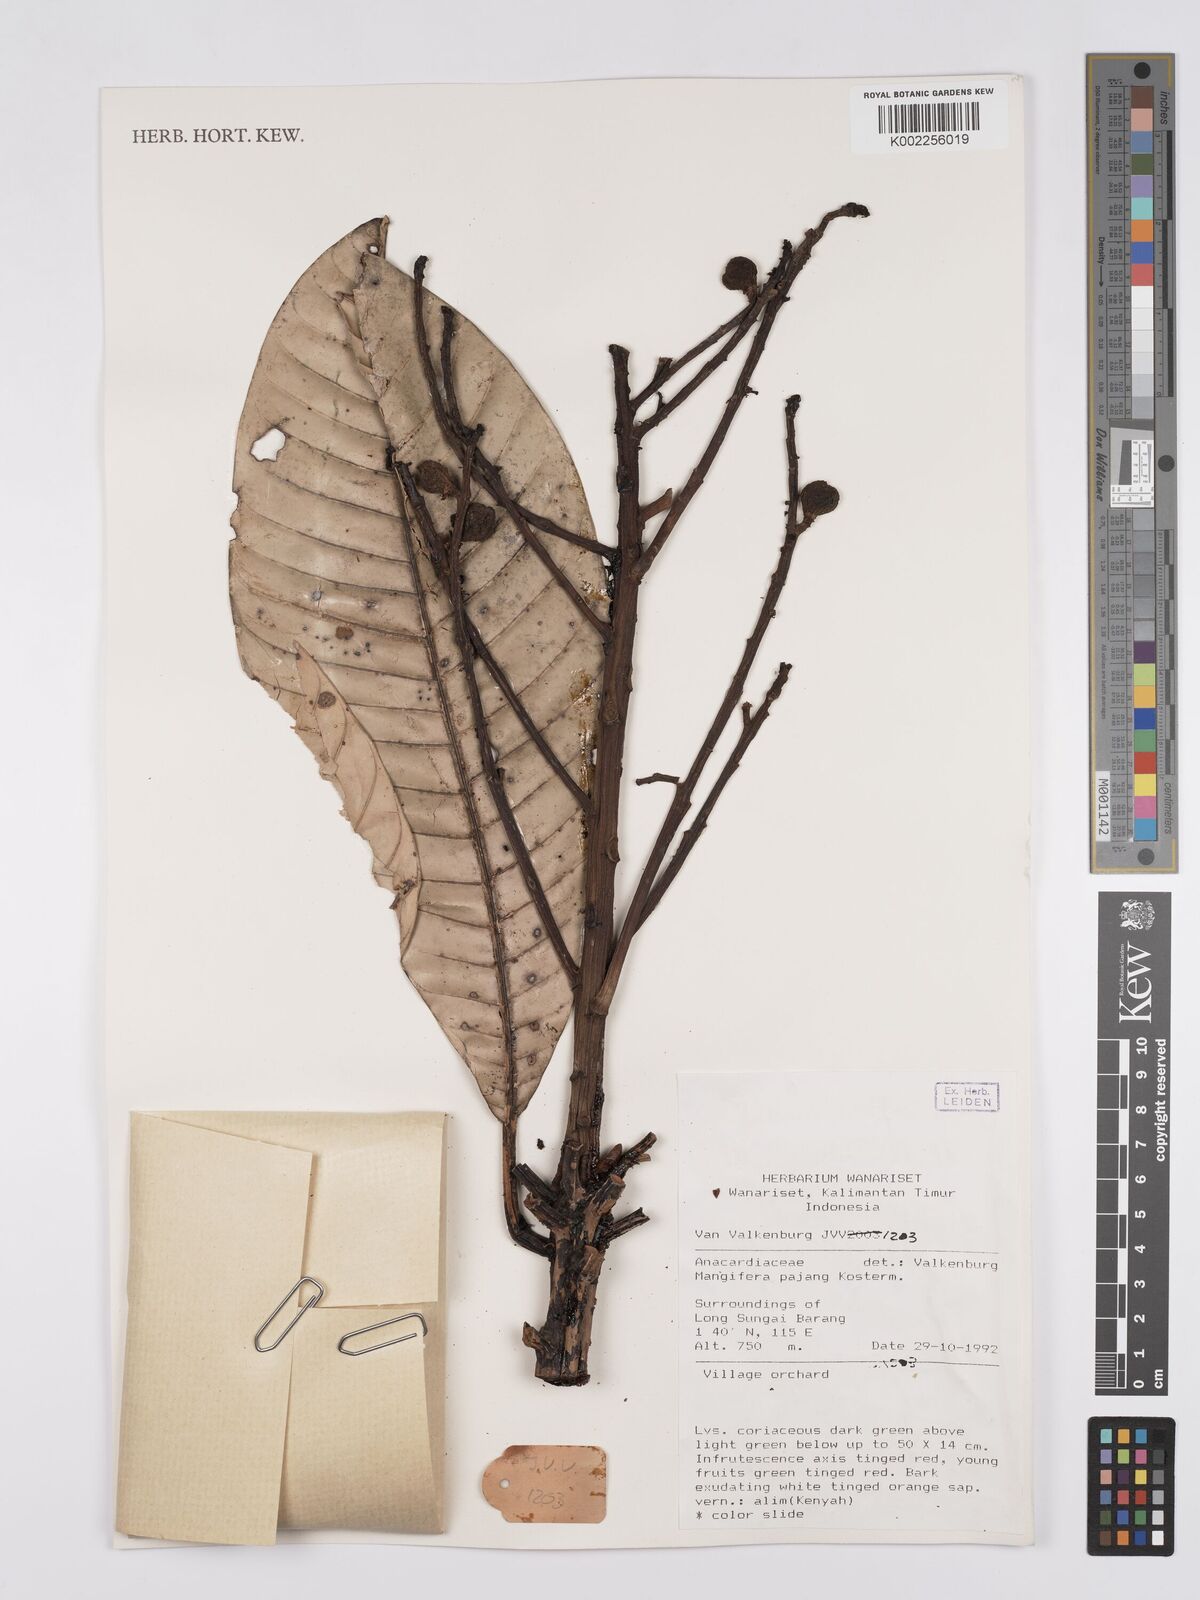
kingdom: Plantae
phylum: Tracheophyta
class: Magnoliopsida
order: Sapindales
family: Anacardiaceae
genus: Mangifera
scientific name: Mangifera pajang
